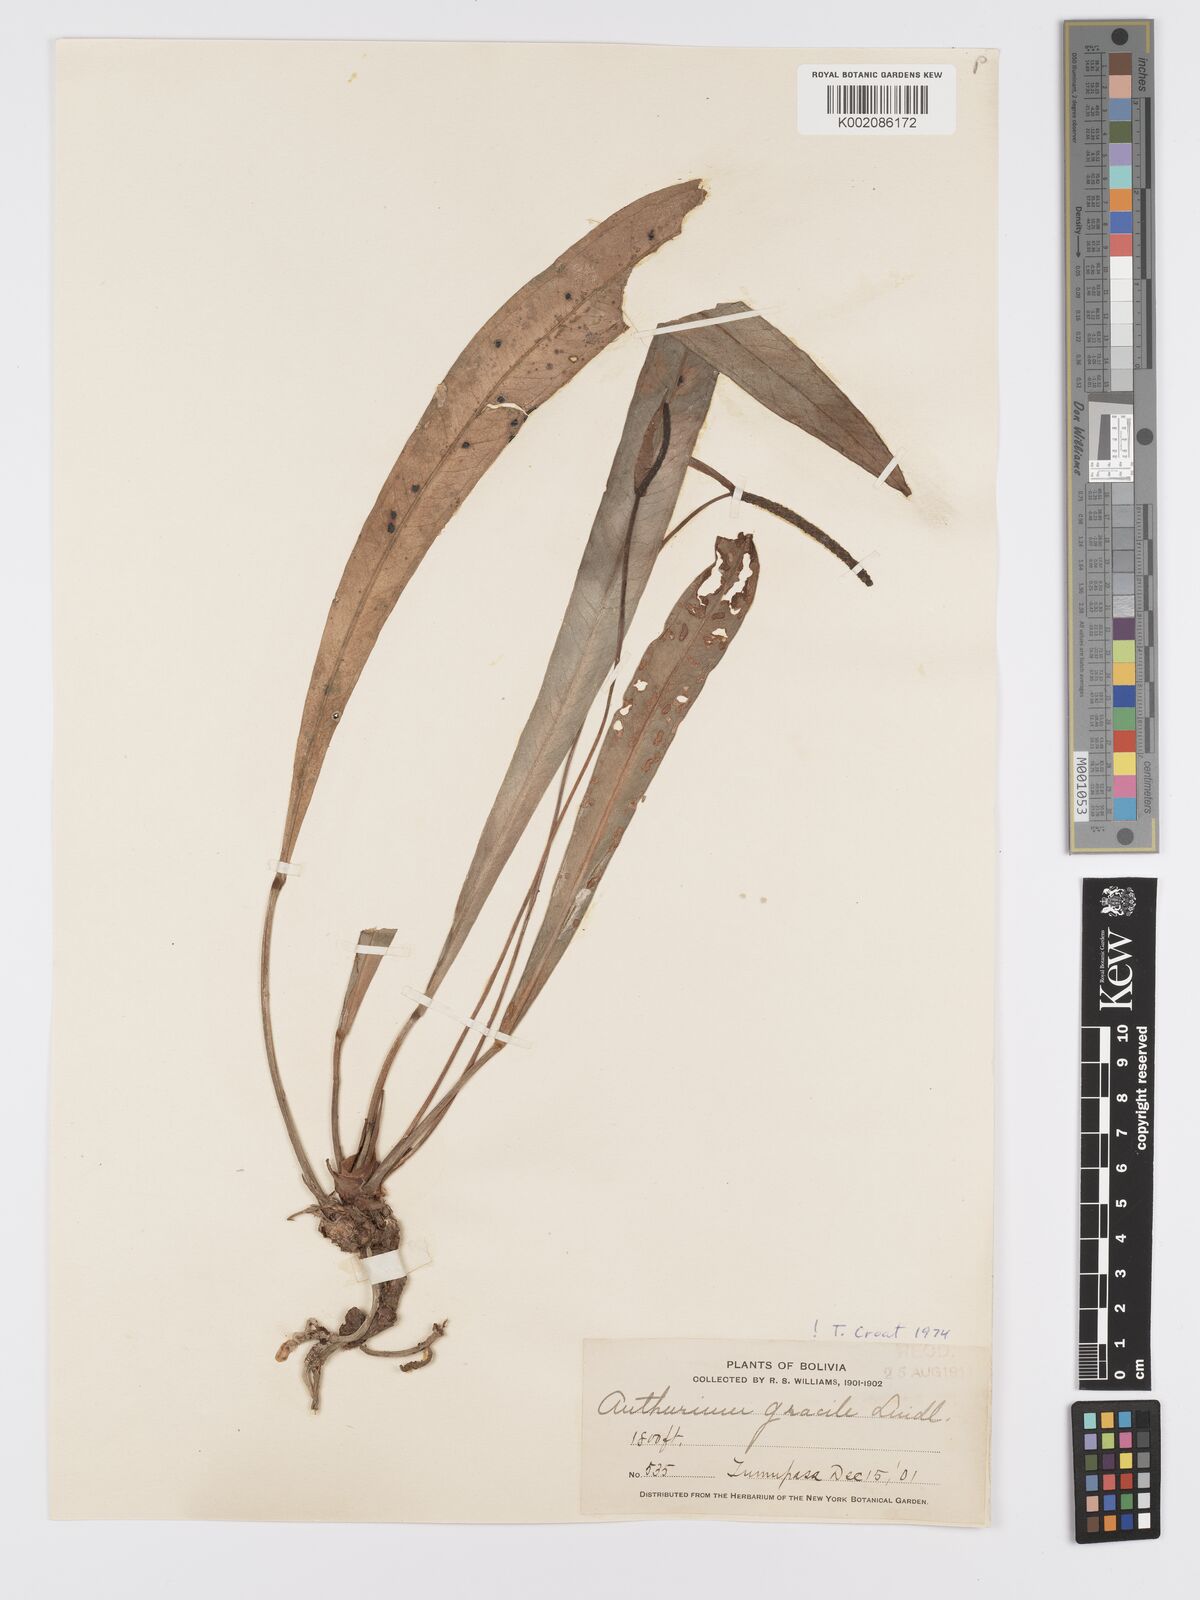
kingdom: Plantae
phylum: Tracheophyta
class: Liliopsida
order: Alismatales
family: Araceae
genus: Anthurium
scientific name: Anthurium gracile
